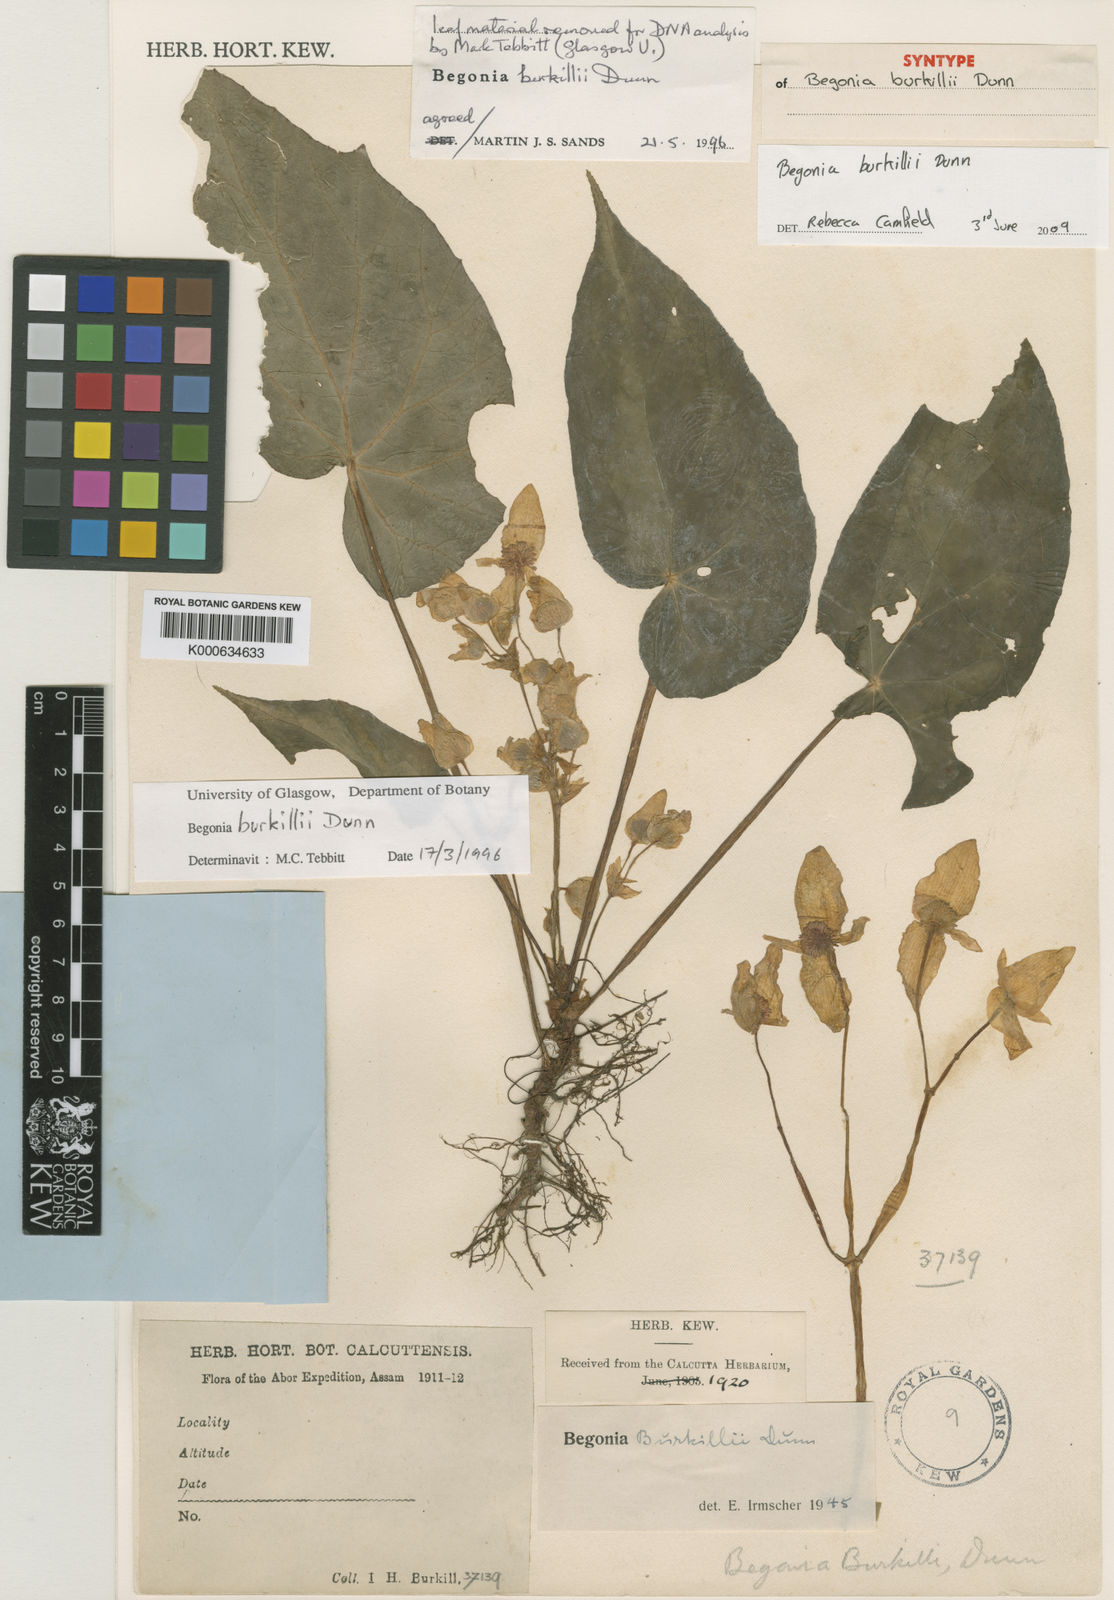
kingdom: Plantae
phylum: Tracheophyta
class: Magnoliopsida
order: Cucurbitales
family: Begoniaceae
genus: Begonia
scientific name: Begonia burkillii
